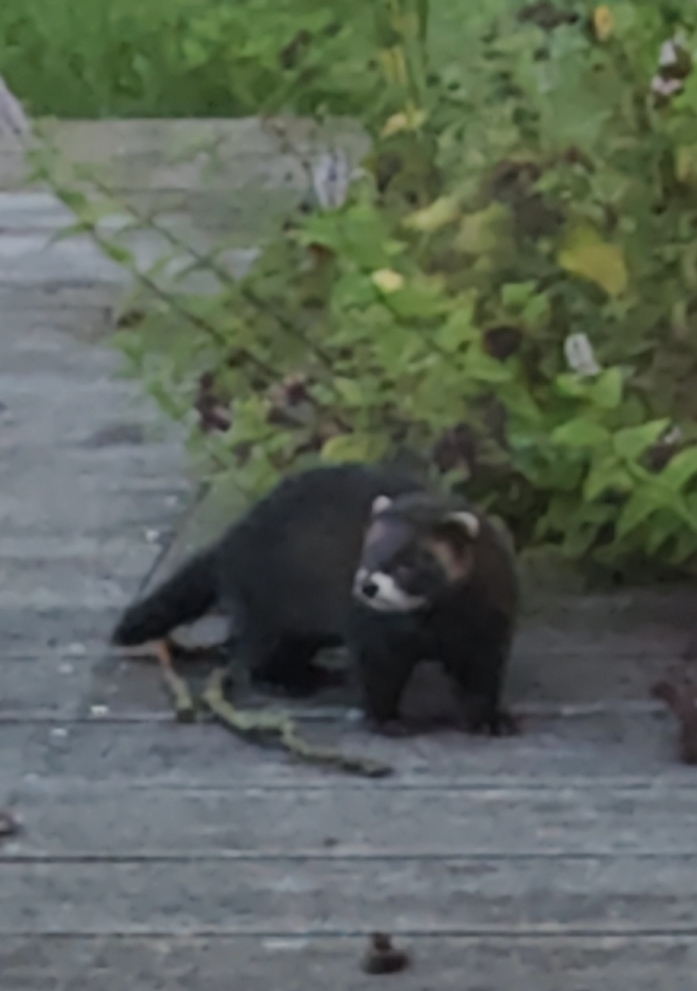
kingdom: Animalia
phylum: Chordata
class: Mammalia
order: Carnivora
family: Mustelidae
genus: Mustela
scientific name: Mustela putorius
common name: Ilder
